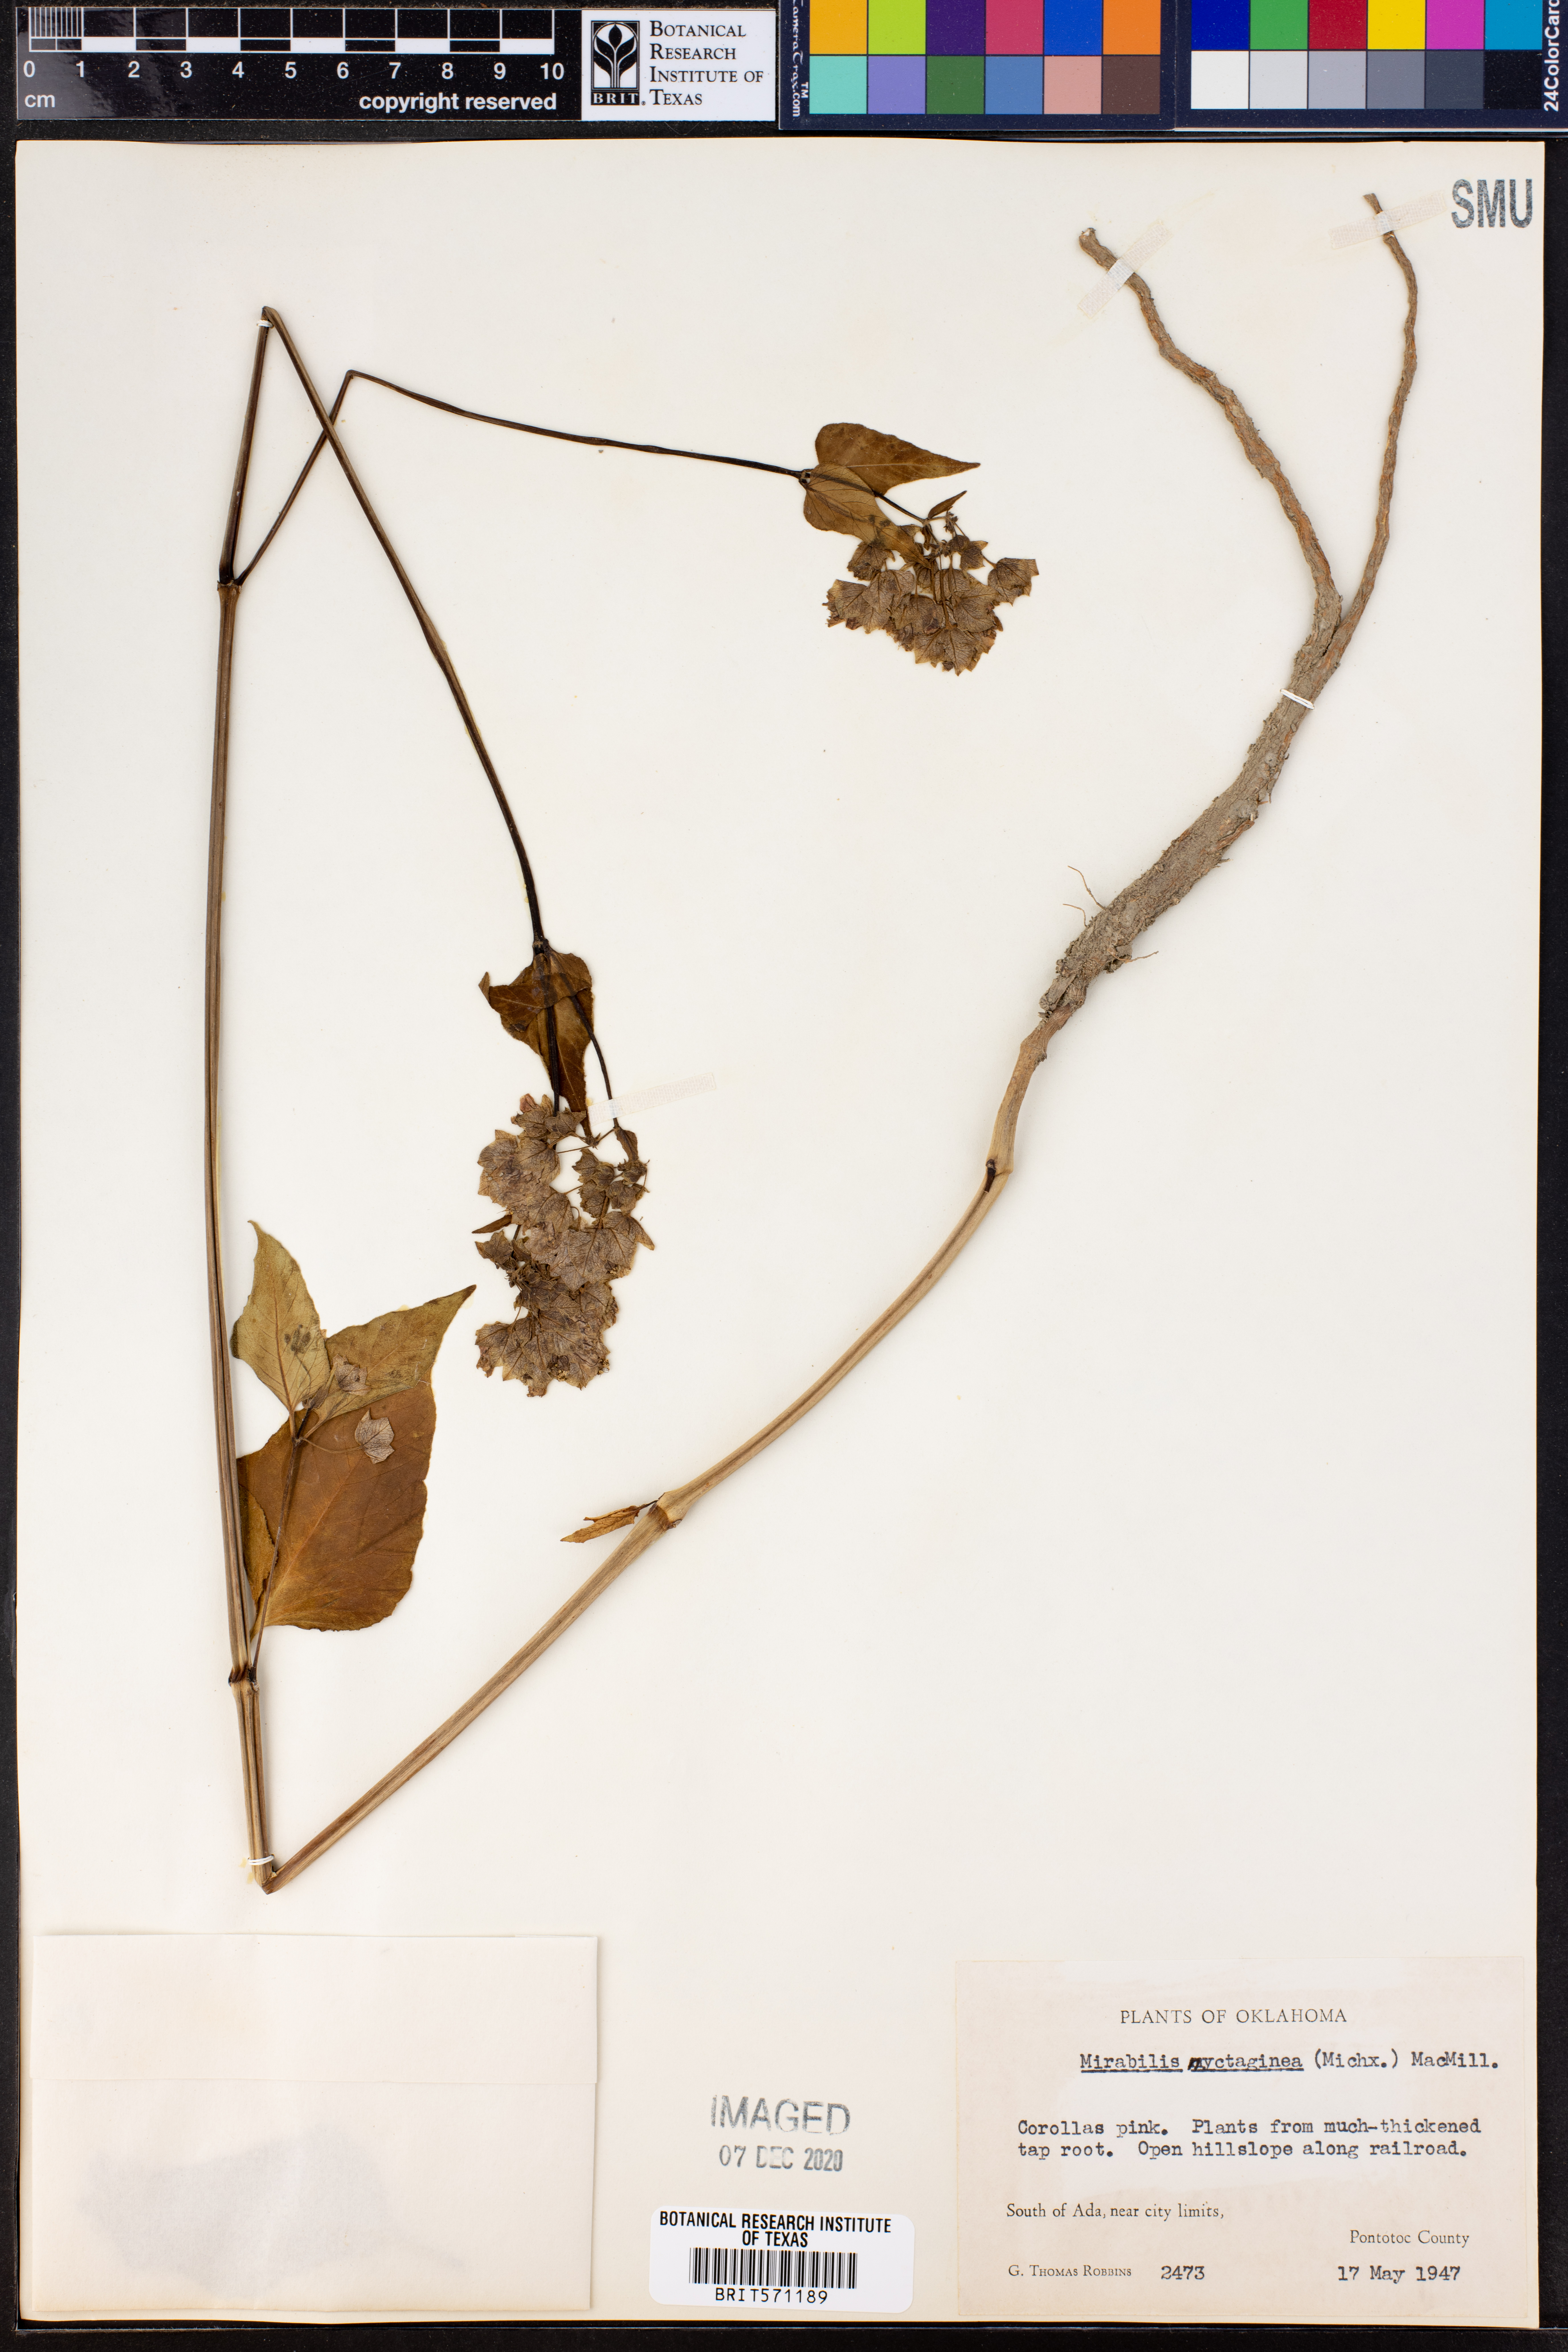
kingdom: Plantae
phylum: Tracheophyta
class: Magnoliopsida
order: Caryophyllales
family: Nyctaginaceae
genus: Mirabilis
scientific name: Mirabilis nyctaginea
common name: Umbrella wort
